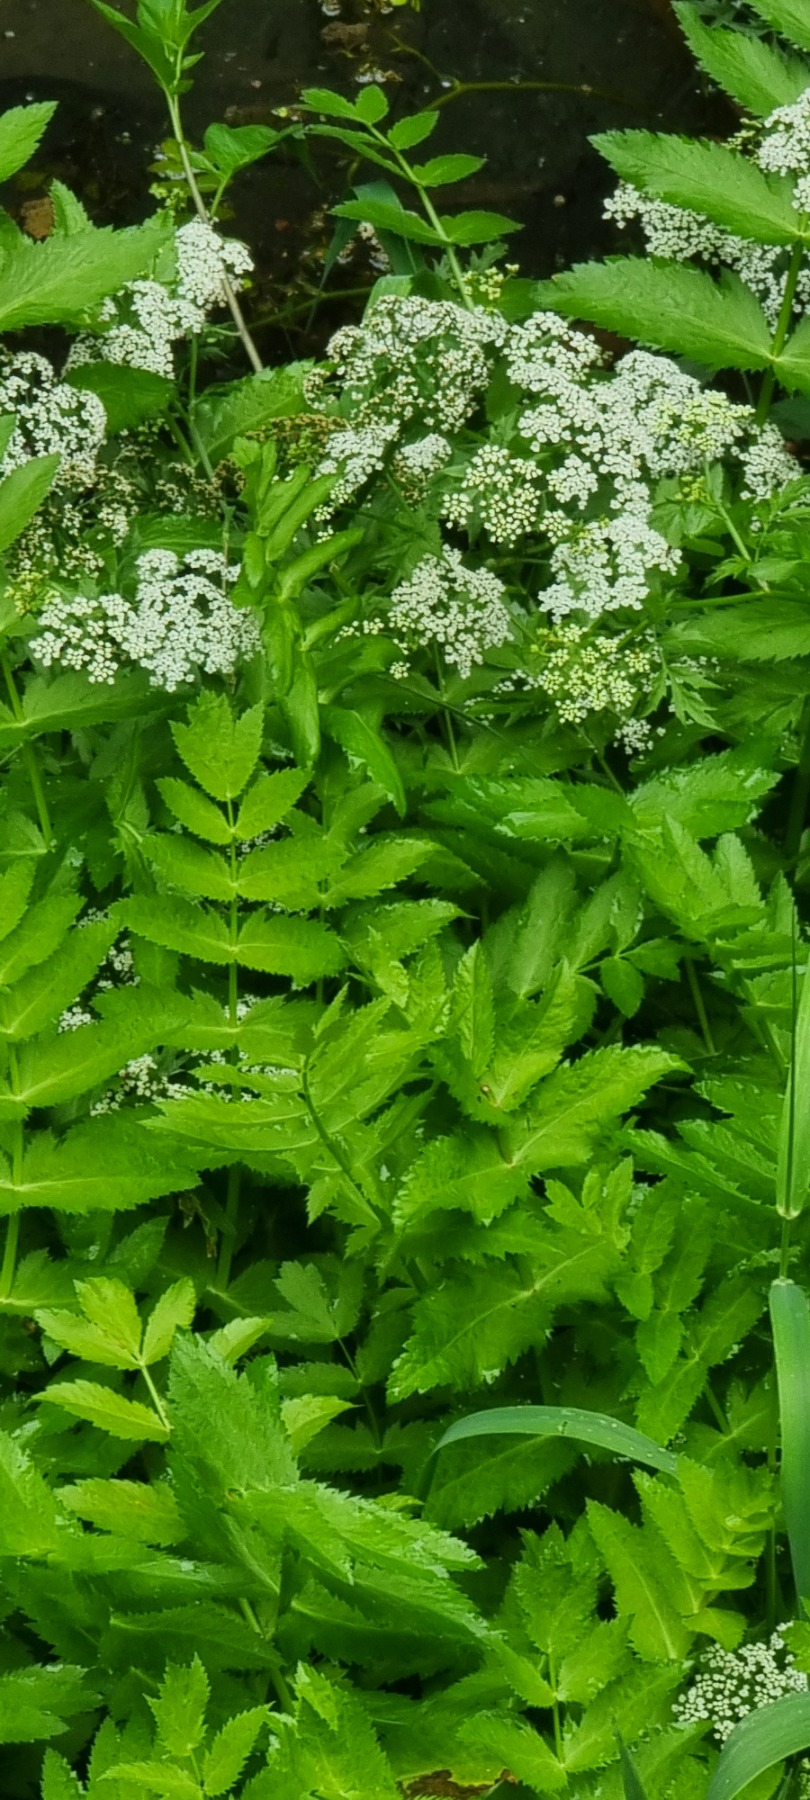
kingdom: Plantae
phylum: Tracheophyta
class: Magnoliopsida
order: Apiales
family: Apiaceae
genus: Berula
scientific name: Berula erecta
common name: Sideskærm
